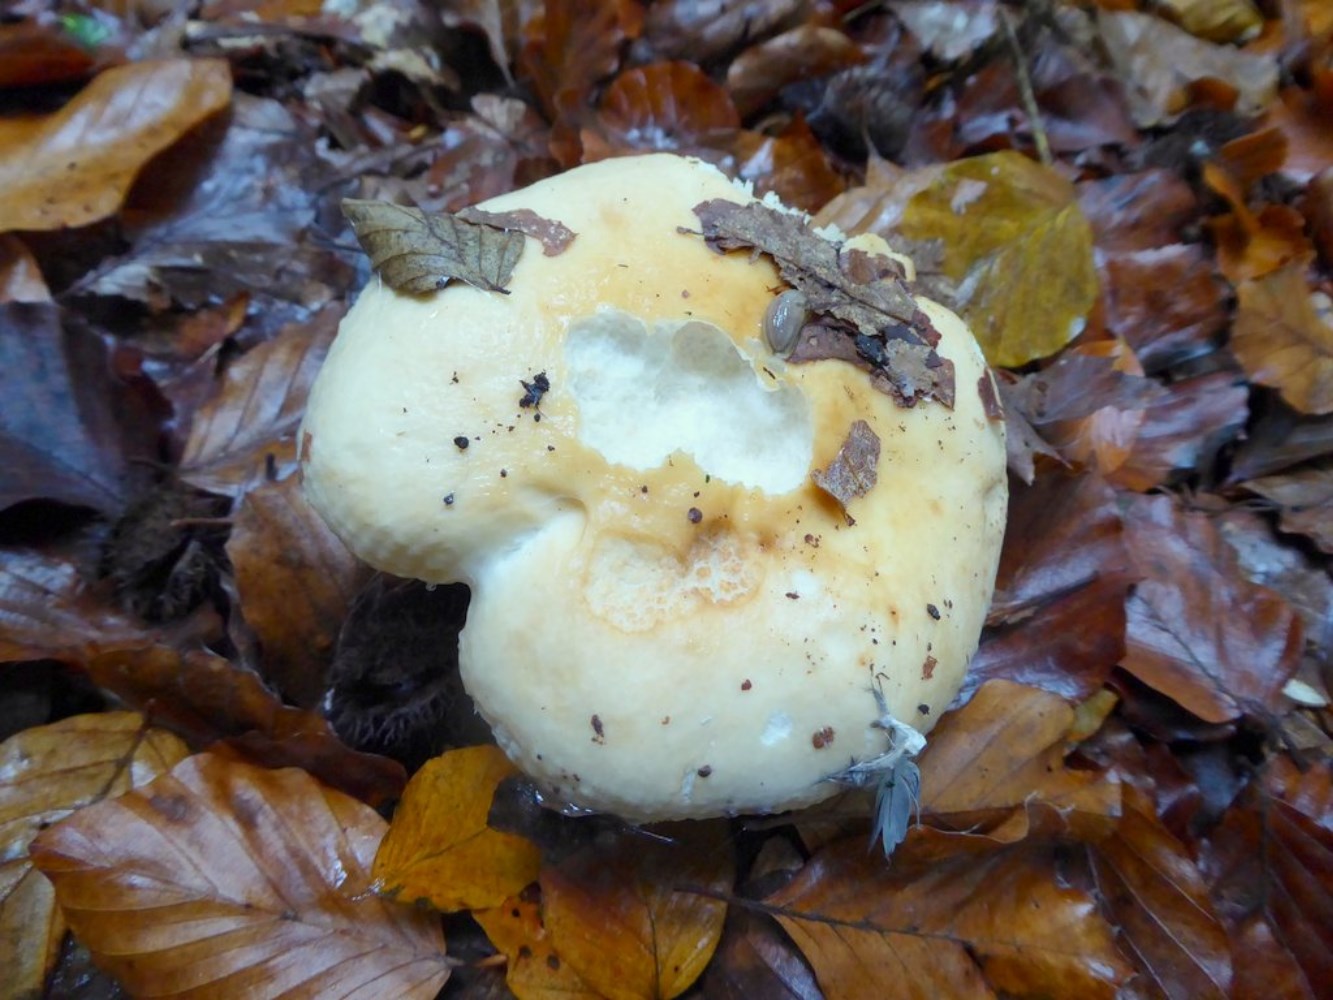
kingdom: Fungi
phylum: Basidiomycota
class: Agaricomycetes
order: Russulales
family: Russulaceae
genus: Russula
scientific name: Russula fellea
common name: galde-skørhat
